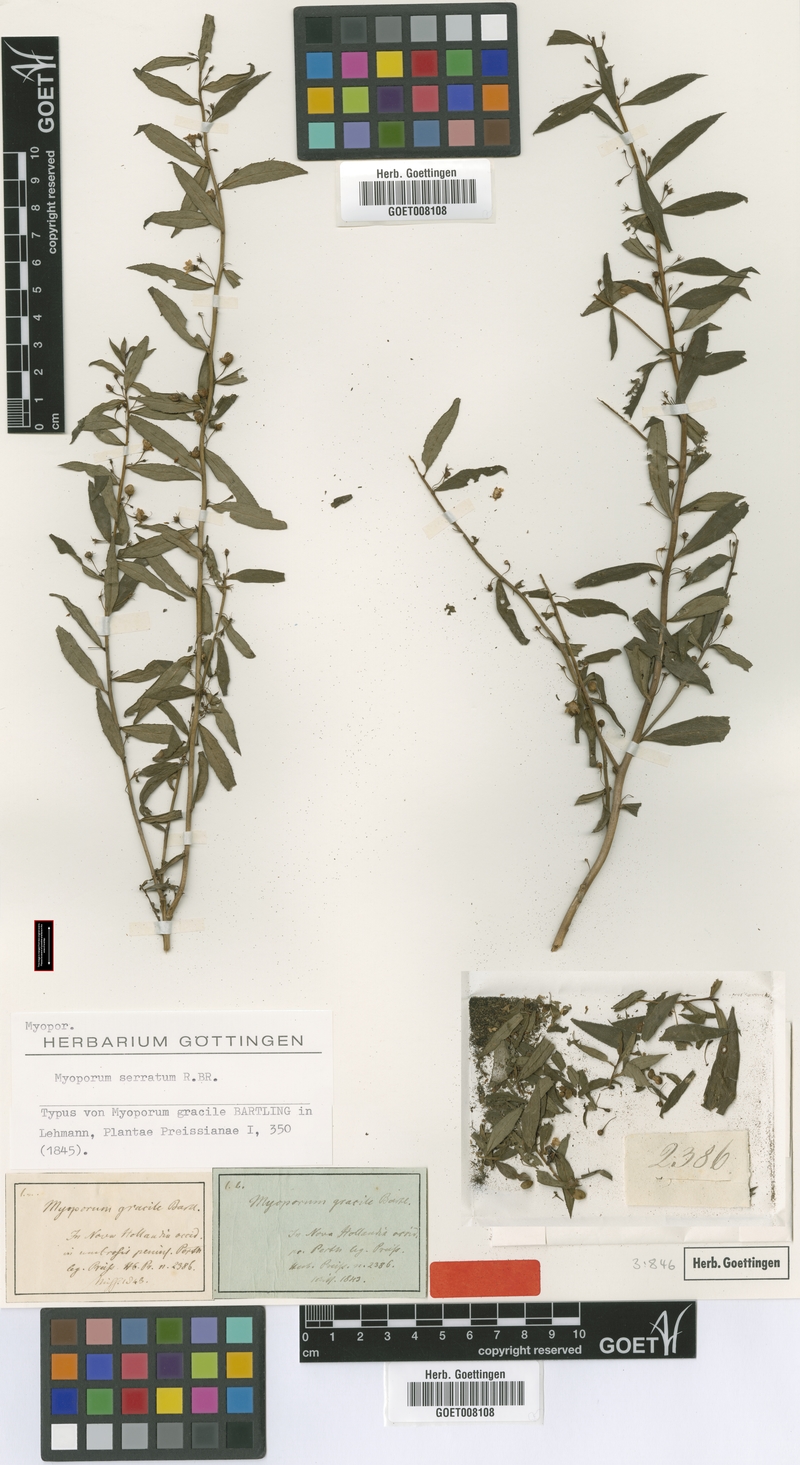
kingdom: Plantae
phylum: Tracheophyta
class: Magnoliopsida
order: Lamiales
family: Scrophulariaceae
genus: Myoporum
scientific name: Myoporum insulare
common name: Common boobialla
